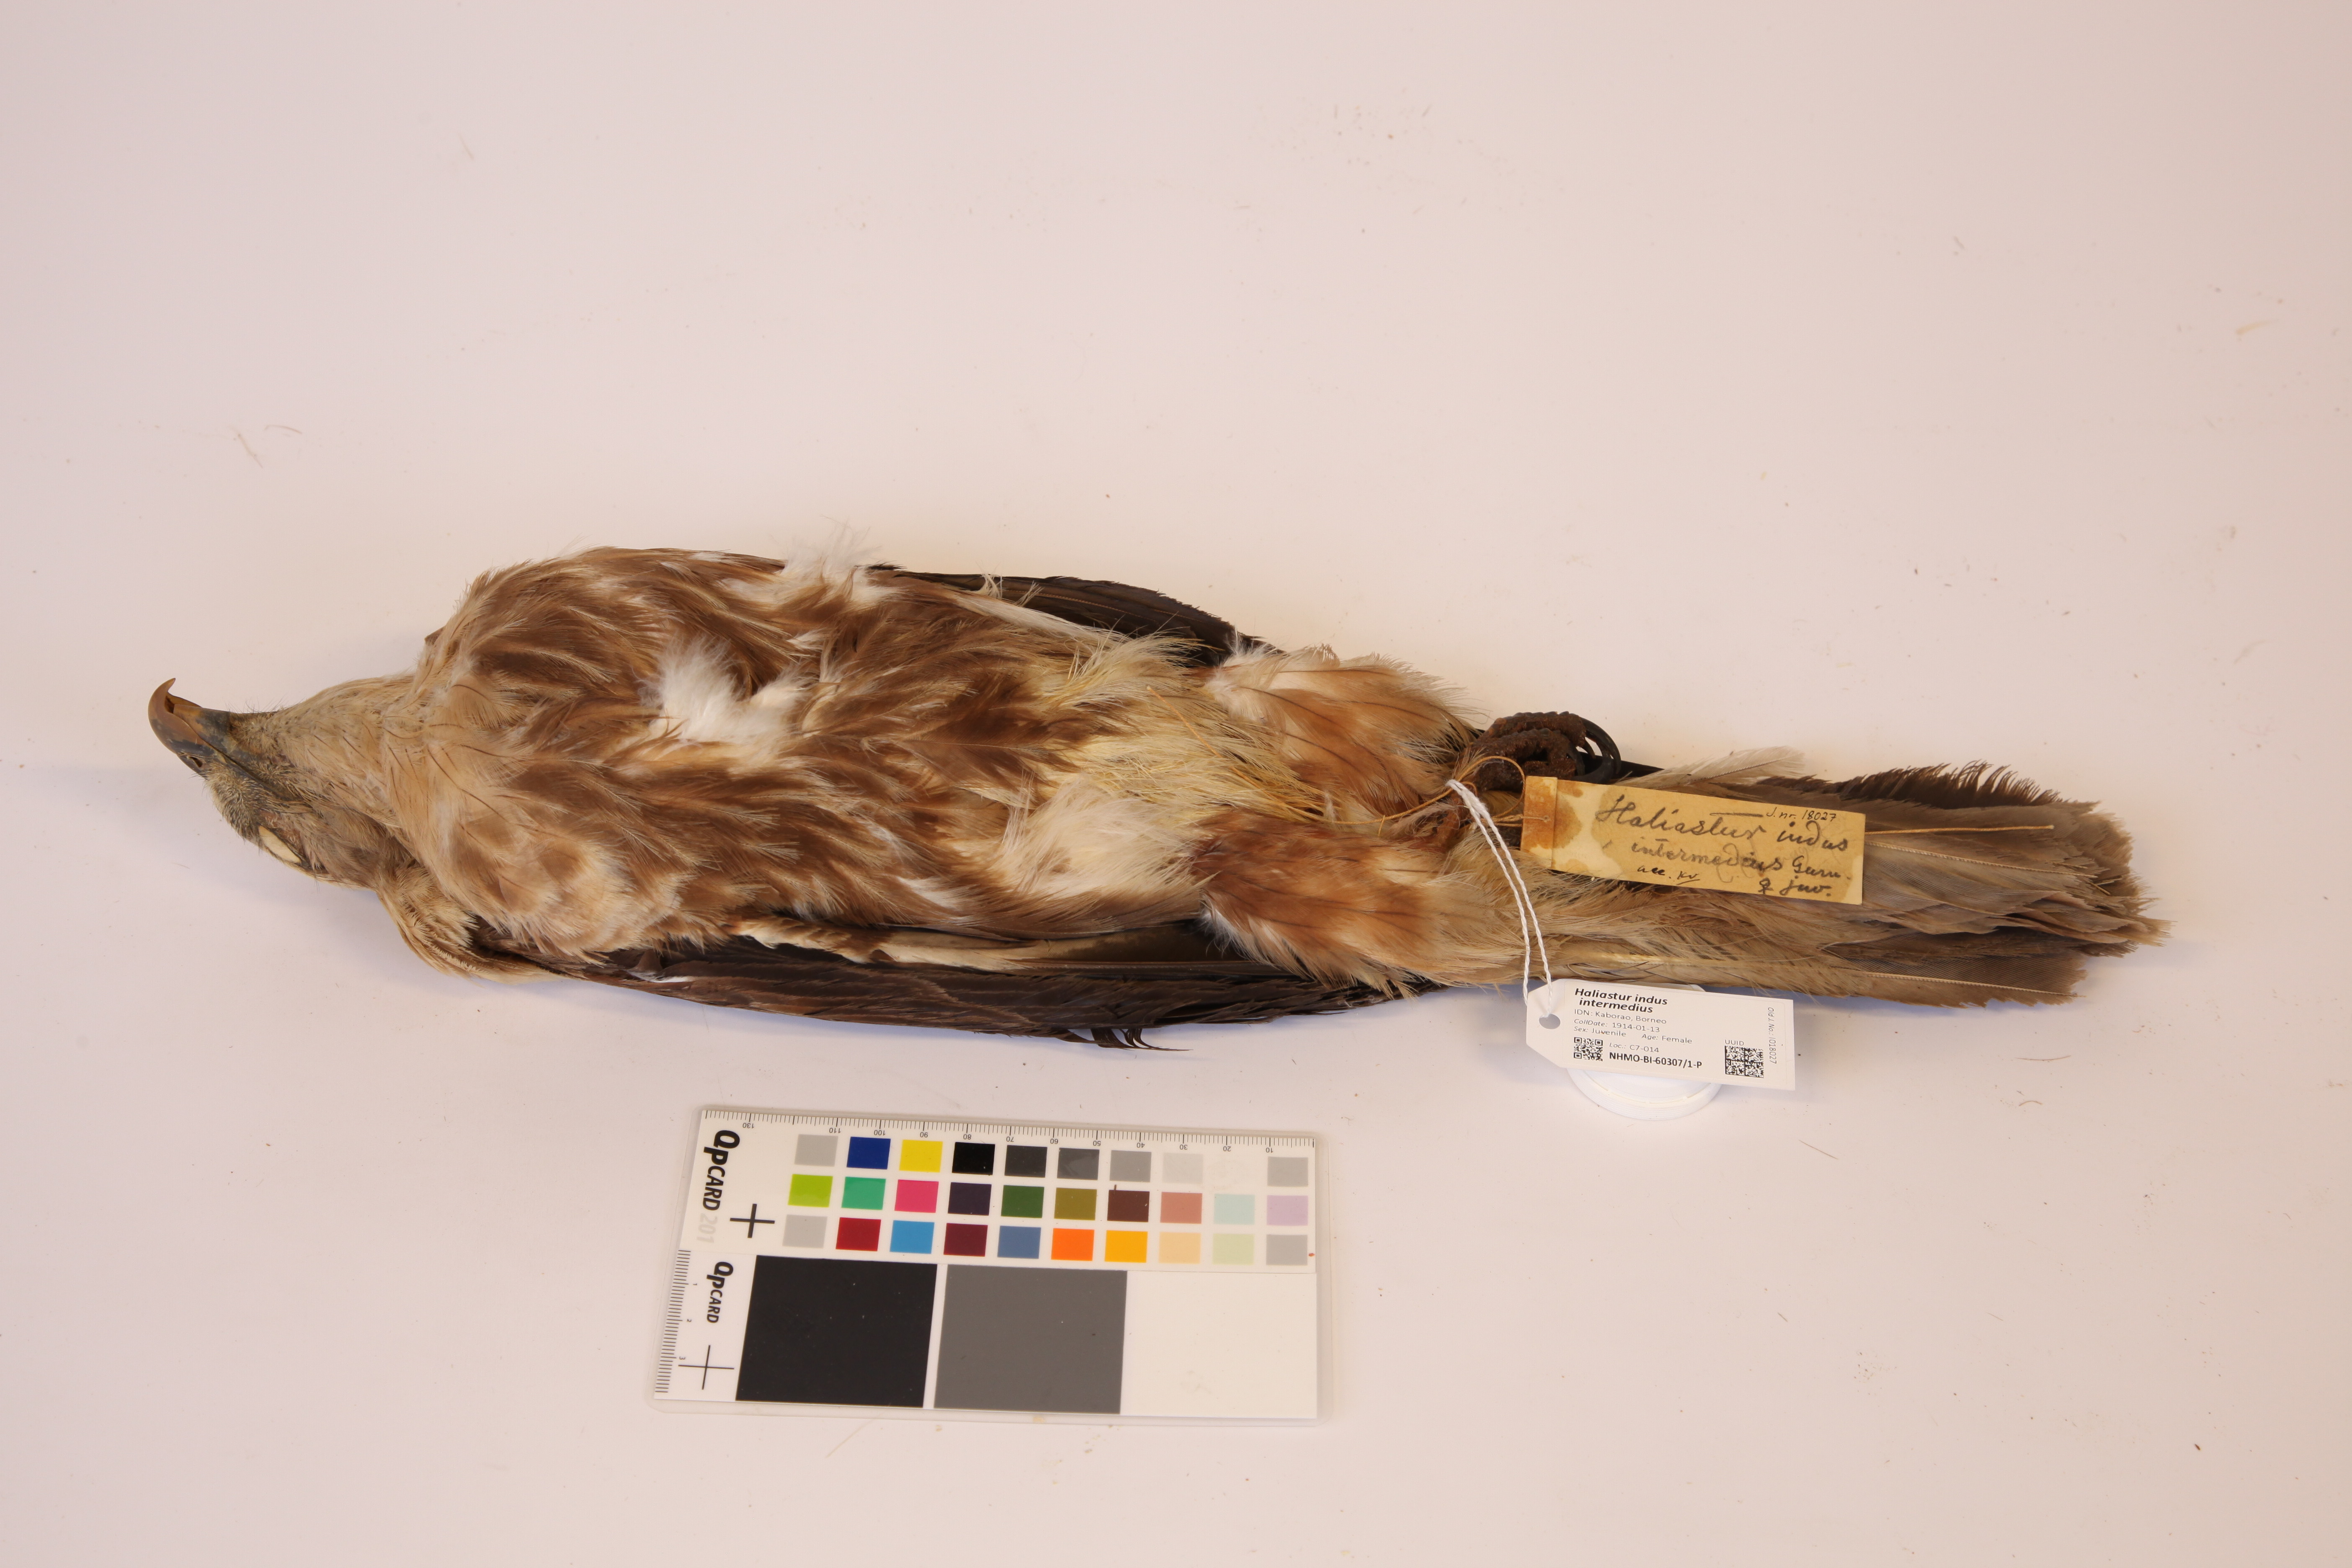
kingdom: Animalia
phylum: Chordata
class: Aves
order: Accipitriformes
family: Accipitridae
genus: Haliastur
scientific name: Haliastur indus
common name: Brahminy kite
